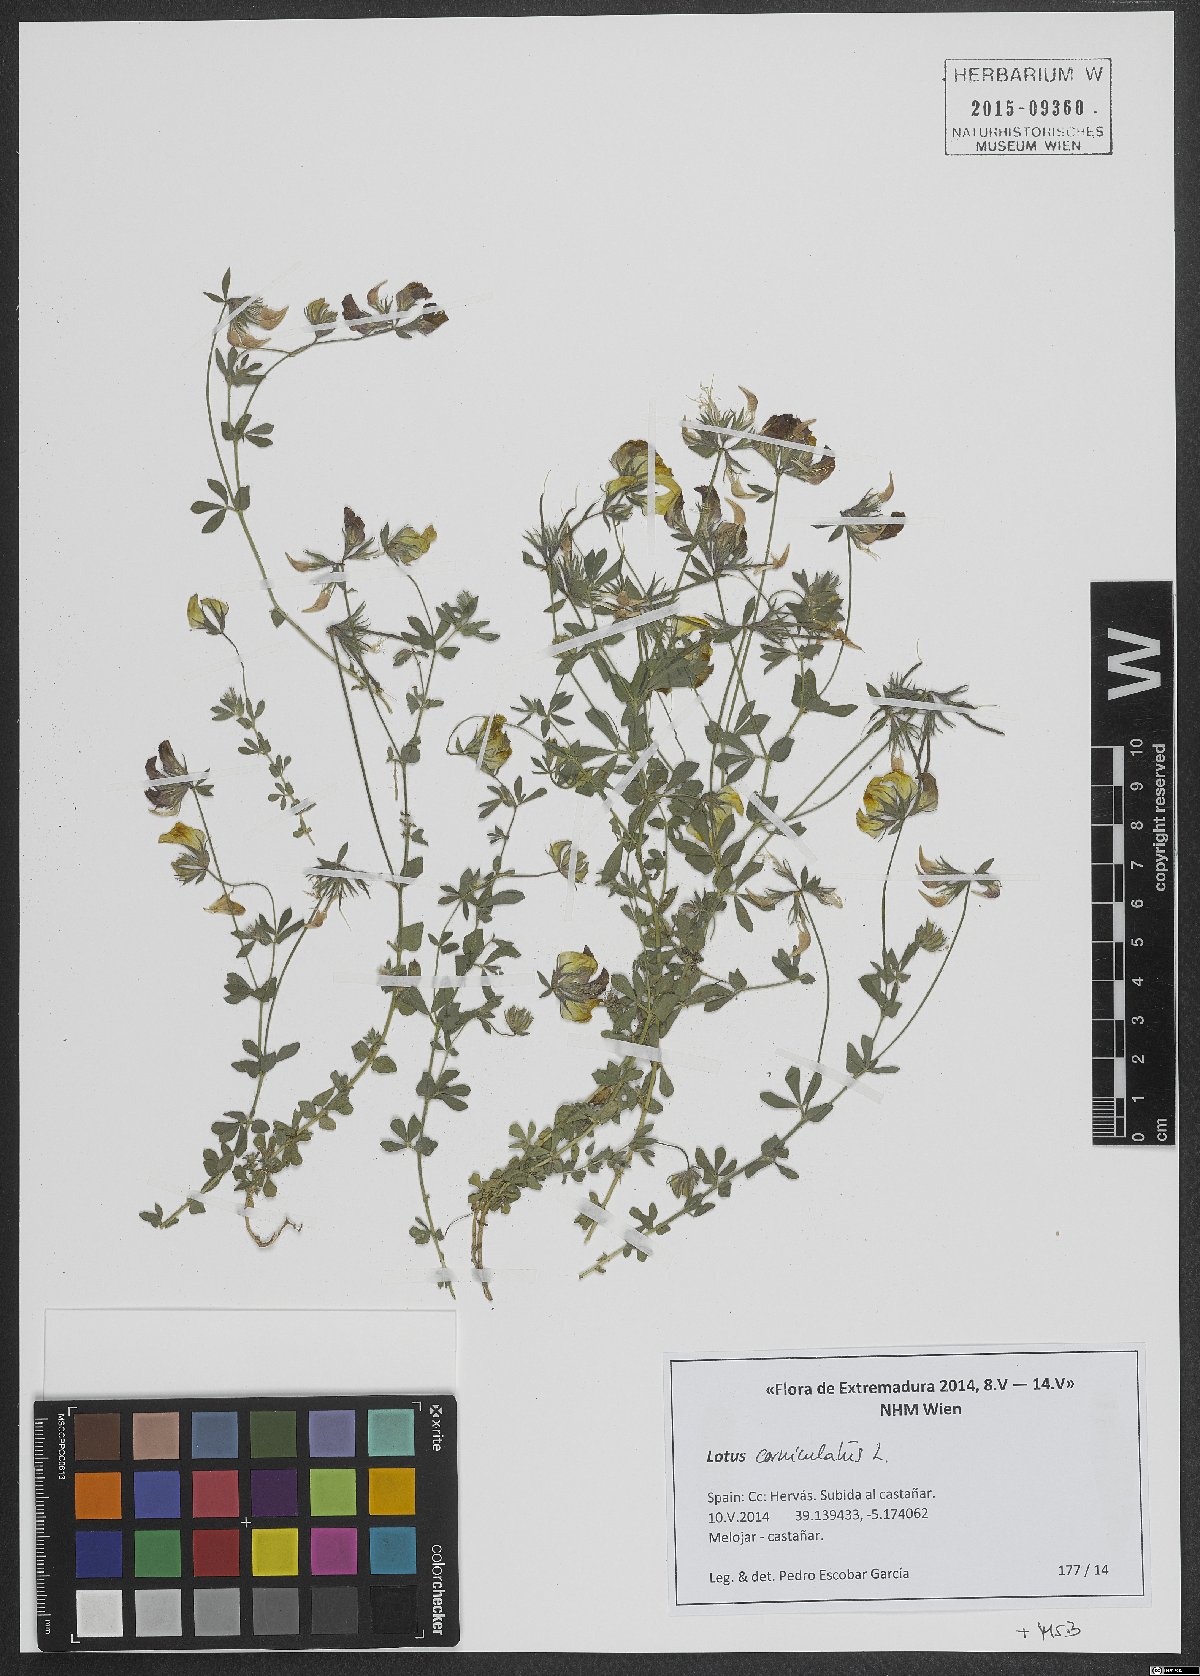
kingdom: Plantae
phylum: Tracheophyta
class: Magnoliopsida
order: Fabales
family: Fabaceae
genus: Lotus
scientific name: Lotus corniculatus
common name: Common bird's-foot-trefoil
